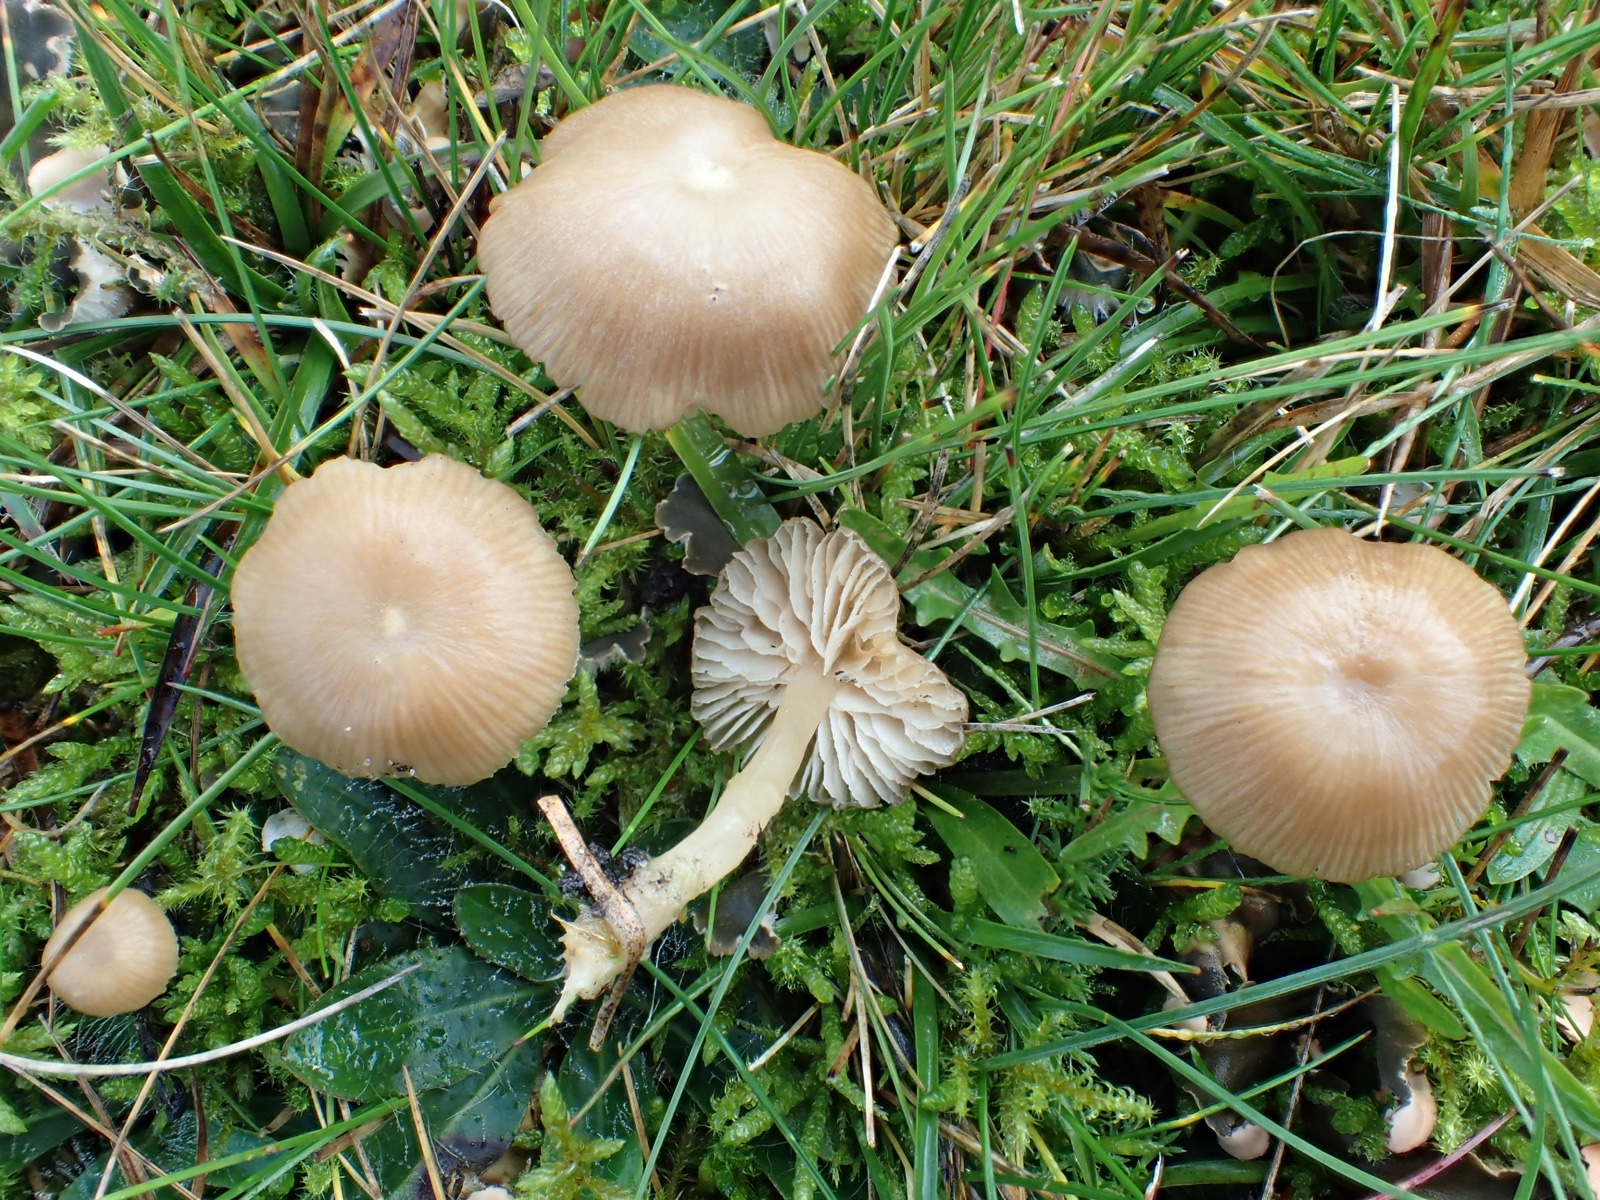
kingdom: Fungi
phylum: Basidiomycota
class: Agaricomycetes
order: Agaricales
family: Tricholomataceae
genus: Gamundia
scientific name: Gamundia xerophila
